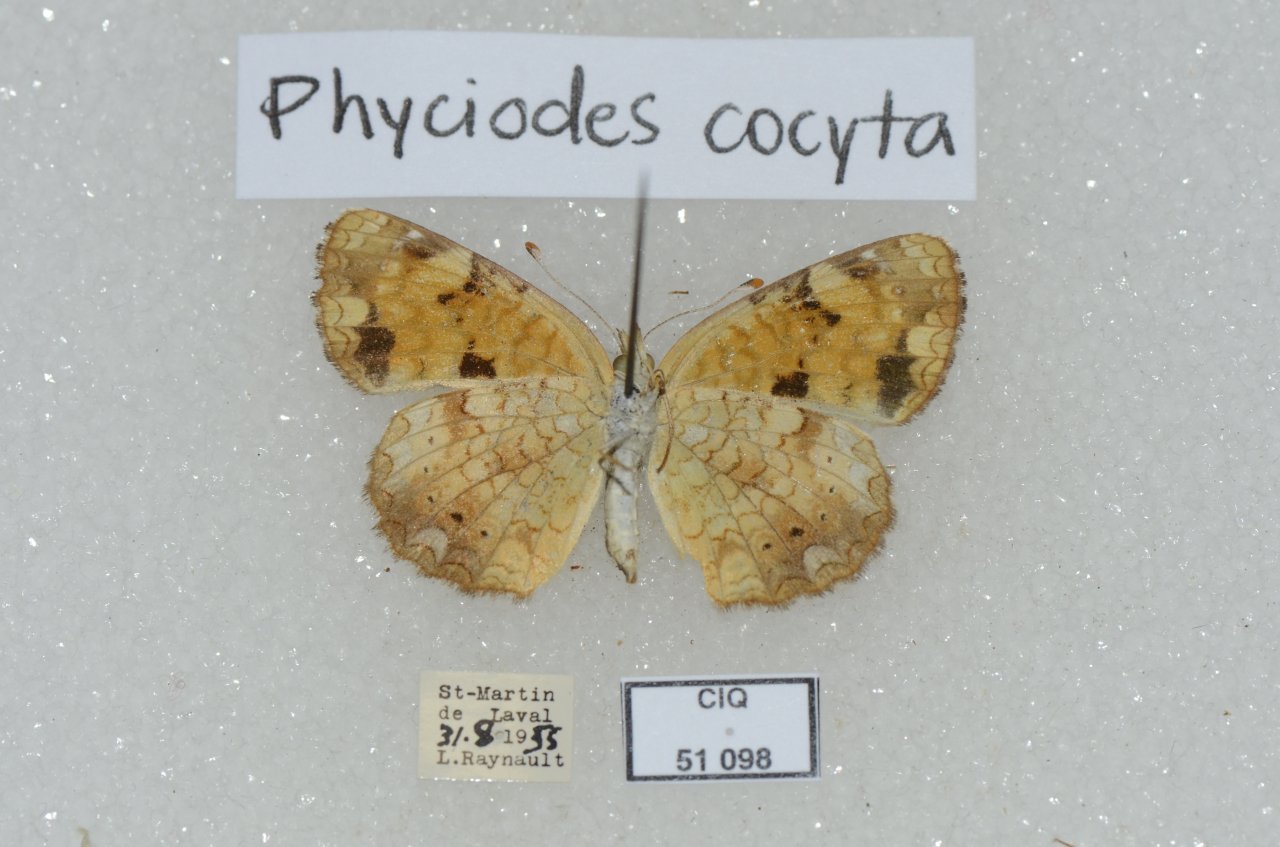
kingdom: Animalia
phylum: Arthropoda
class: Insecta
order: Lepidoptera
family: Nymphalidae
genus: Phyciodes
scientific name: Phyciodes tharos
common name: Northern Crescent
